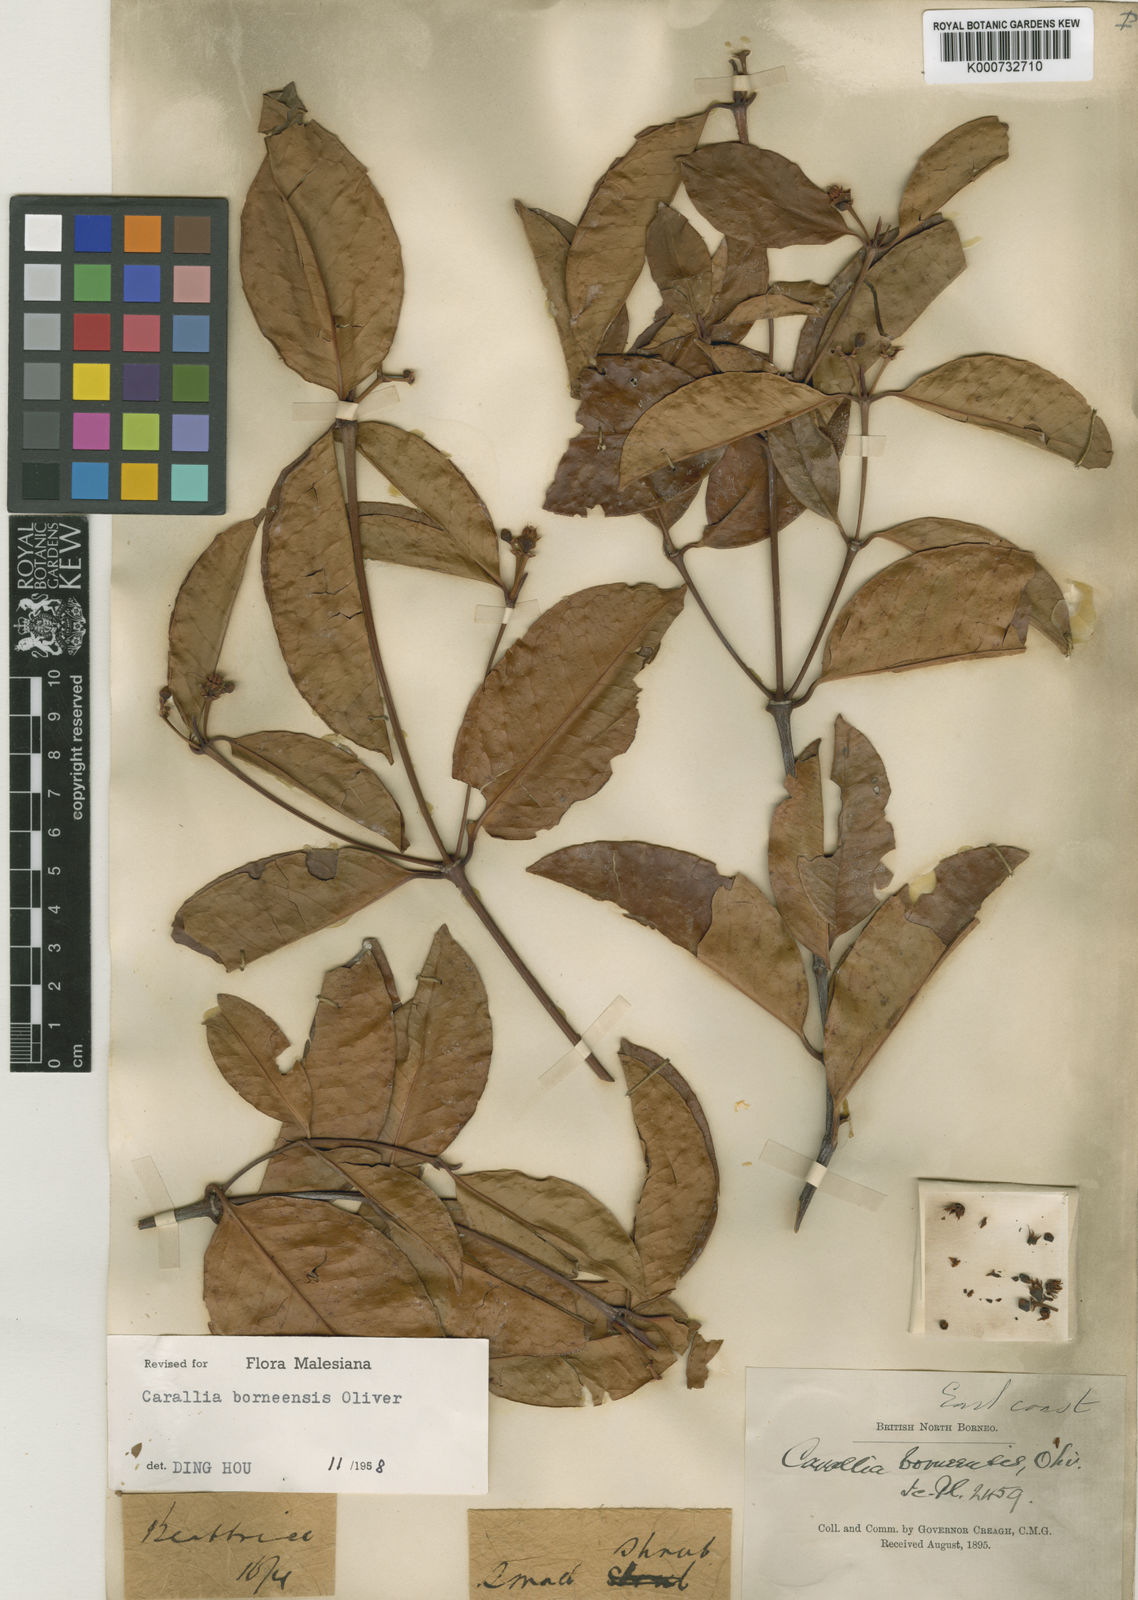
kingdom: Plantae
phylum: Tracheophyta
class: Magnoliopsida
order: Malpighiales
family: Rhizophoraceae
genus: Carallia
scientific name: Carallia borneensis
